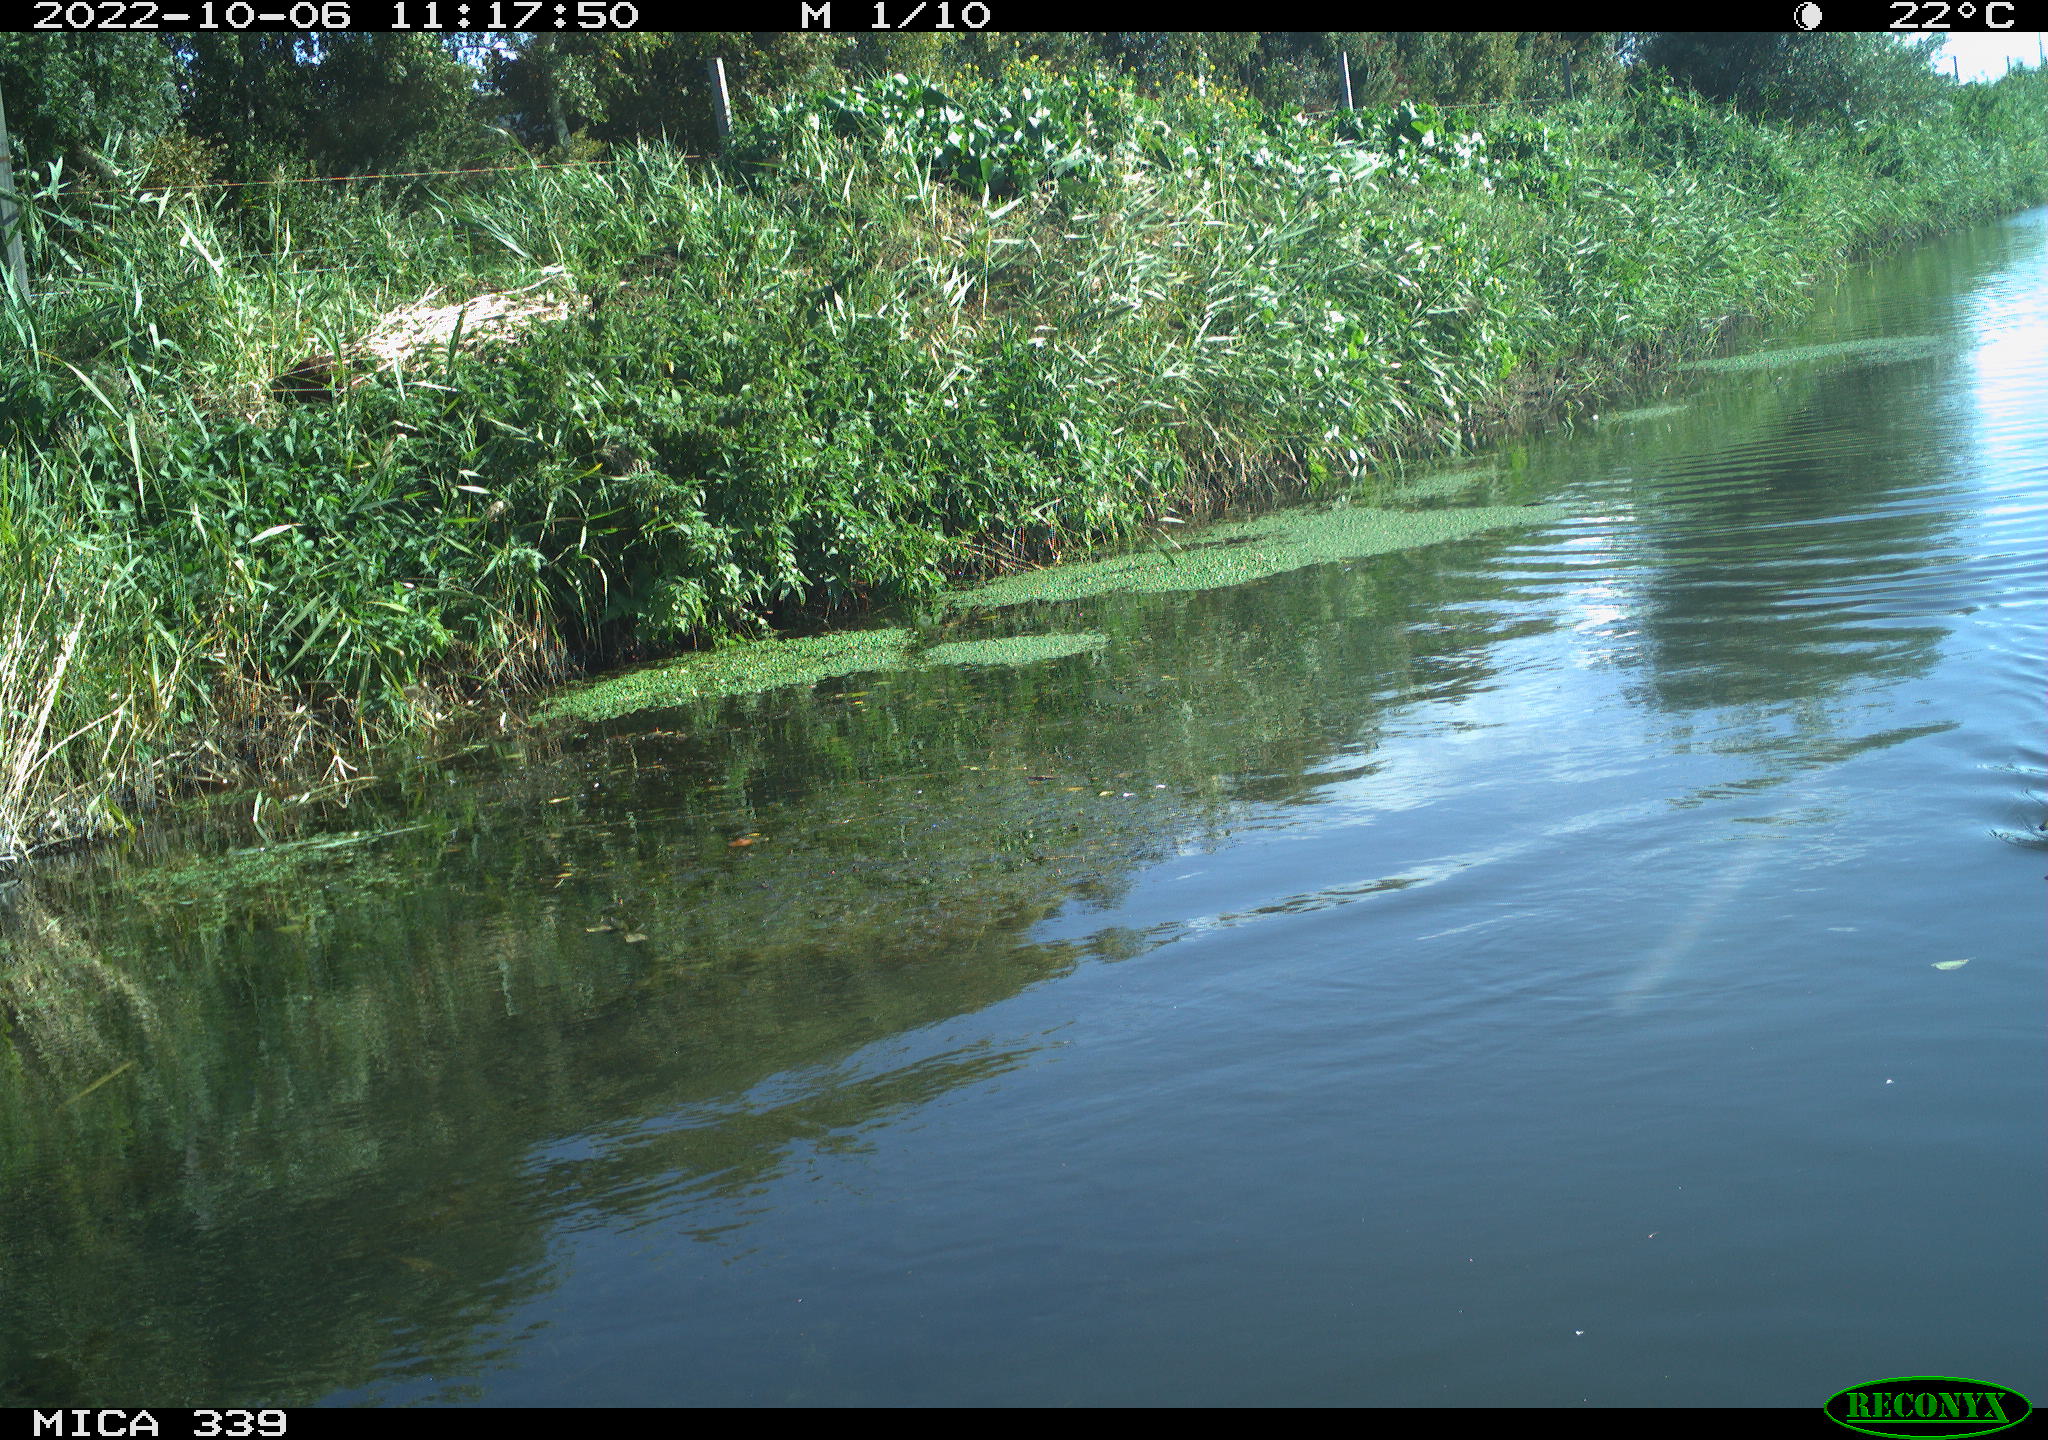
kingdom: Animalia
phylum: Chordata
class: Aves
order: Anseriformes
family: Anatidae
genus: Anas
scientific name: Anas platyrhynchos
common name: Mallard
